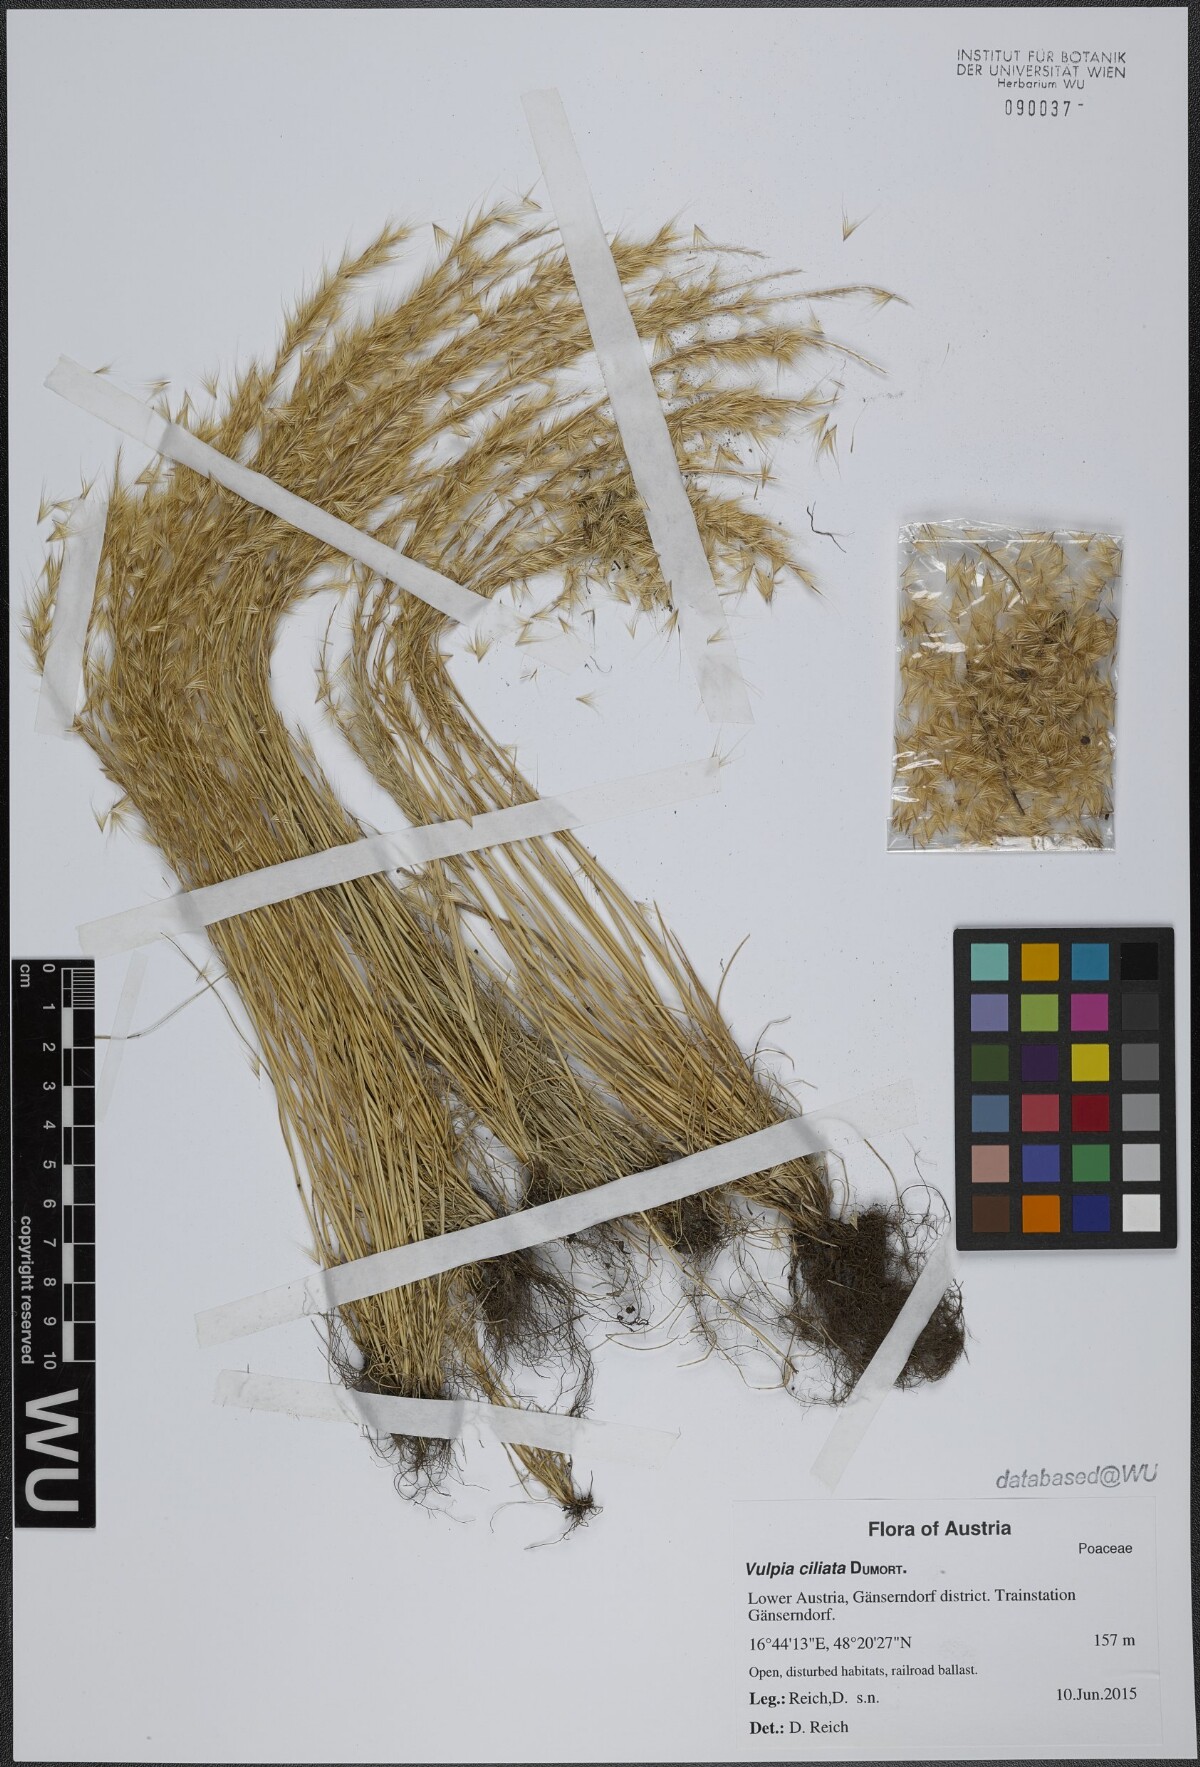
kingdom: Plantae
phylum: Tracheophyta
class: Liliopsida
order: Poales
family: Poaceae
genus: Festuca
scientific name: Festuca ambigua
